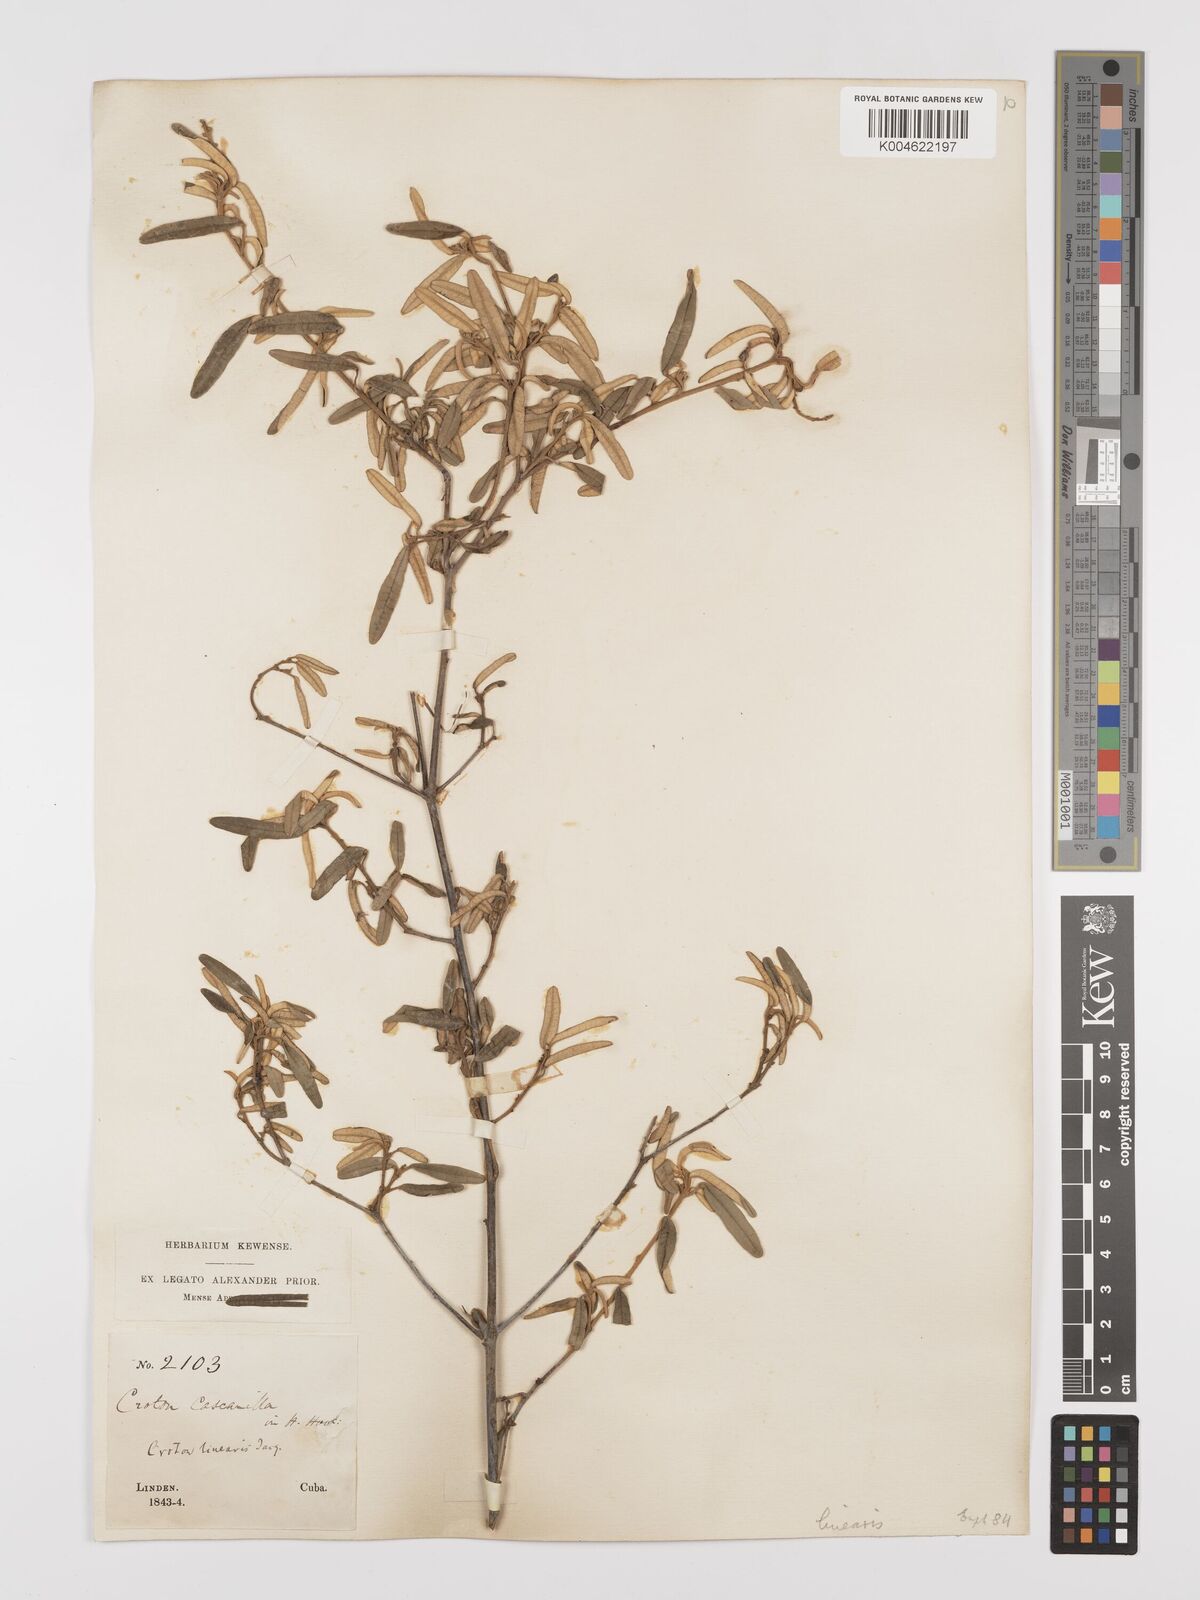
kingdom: Plantae
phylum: Tracheophyta
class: Magnoliopsida
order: Malpighiales
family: Euphorbiaceae
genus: Croton
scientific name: Croton linearis
